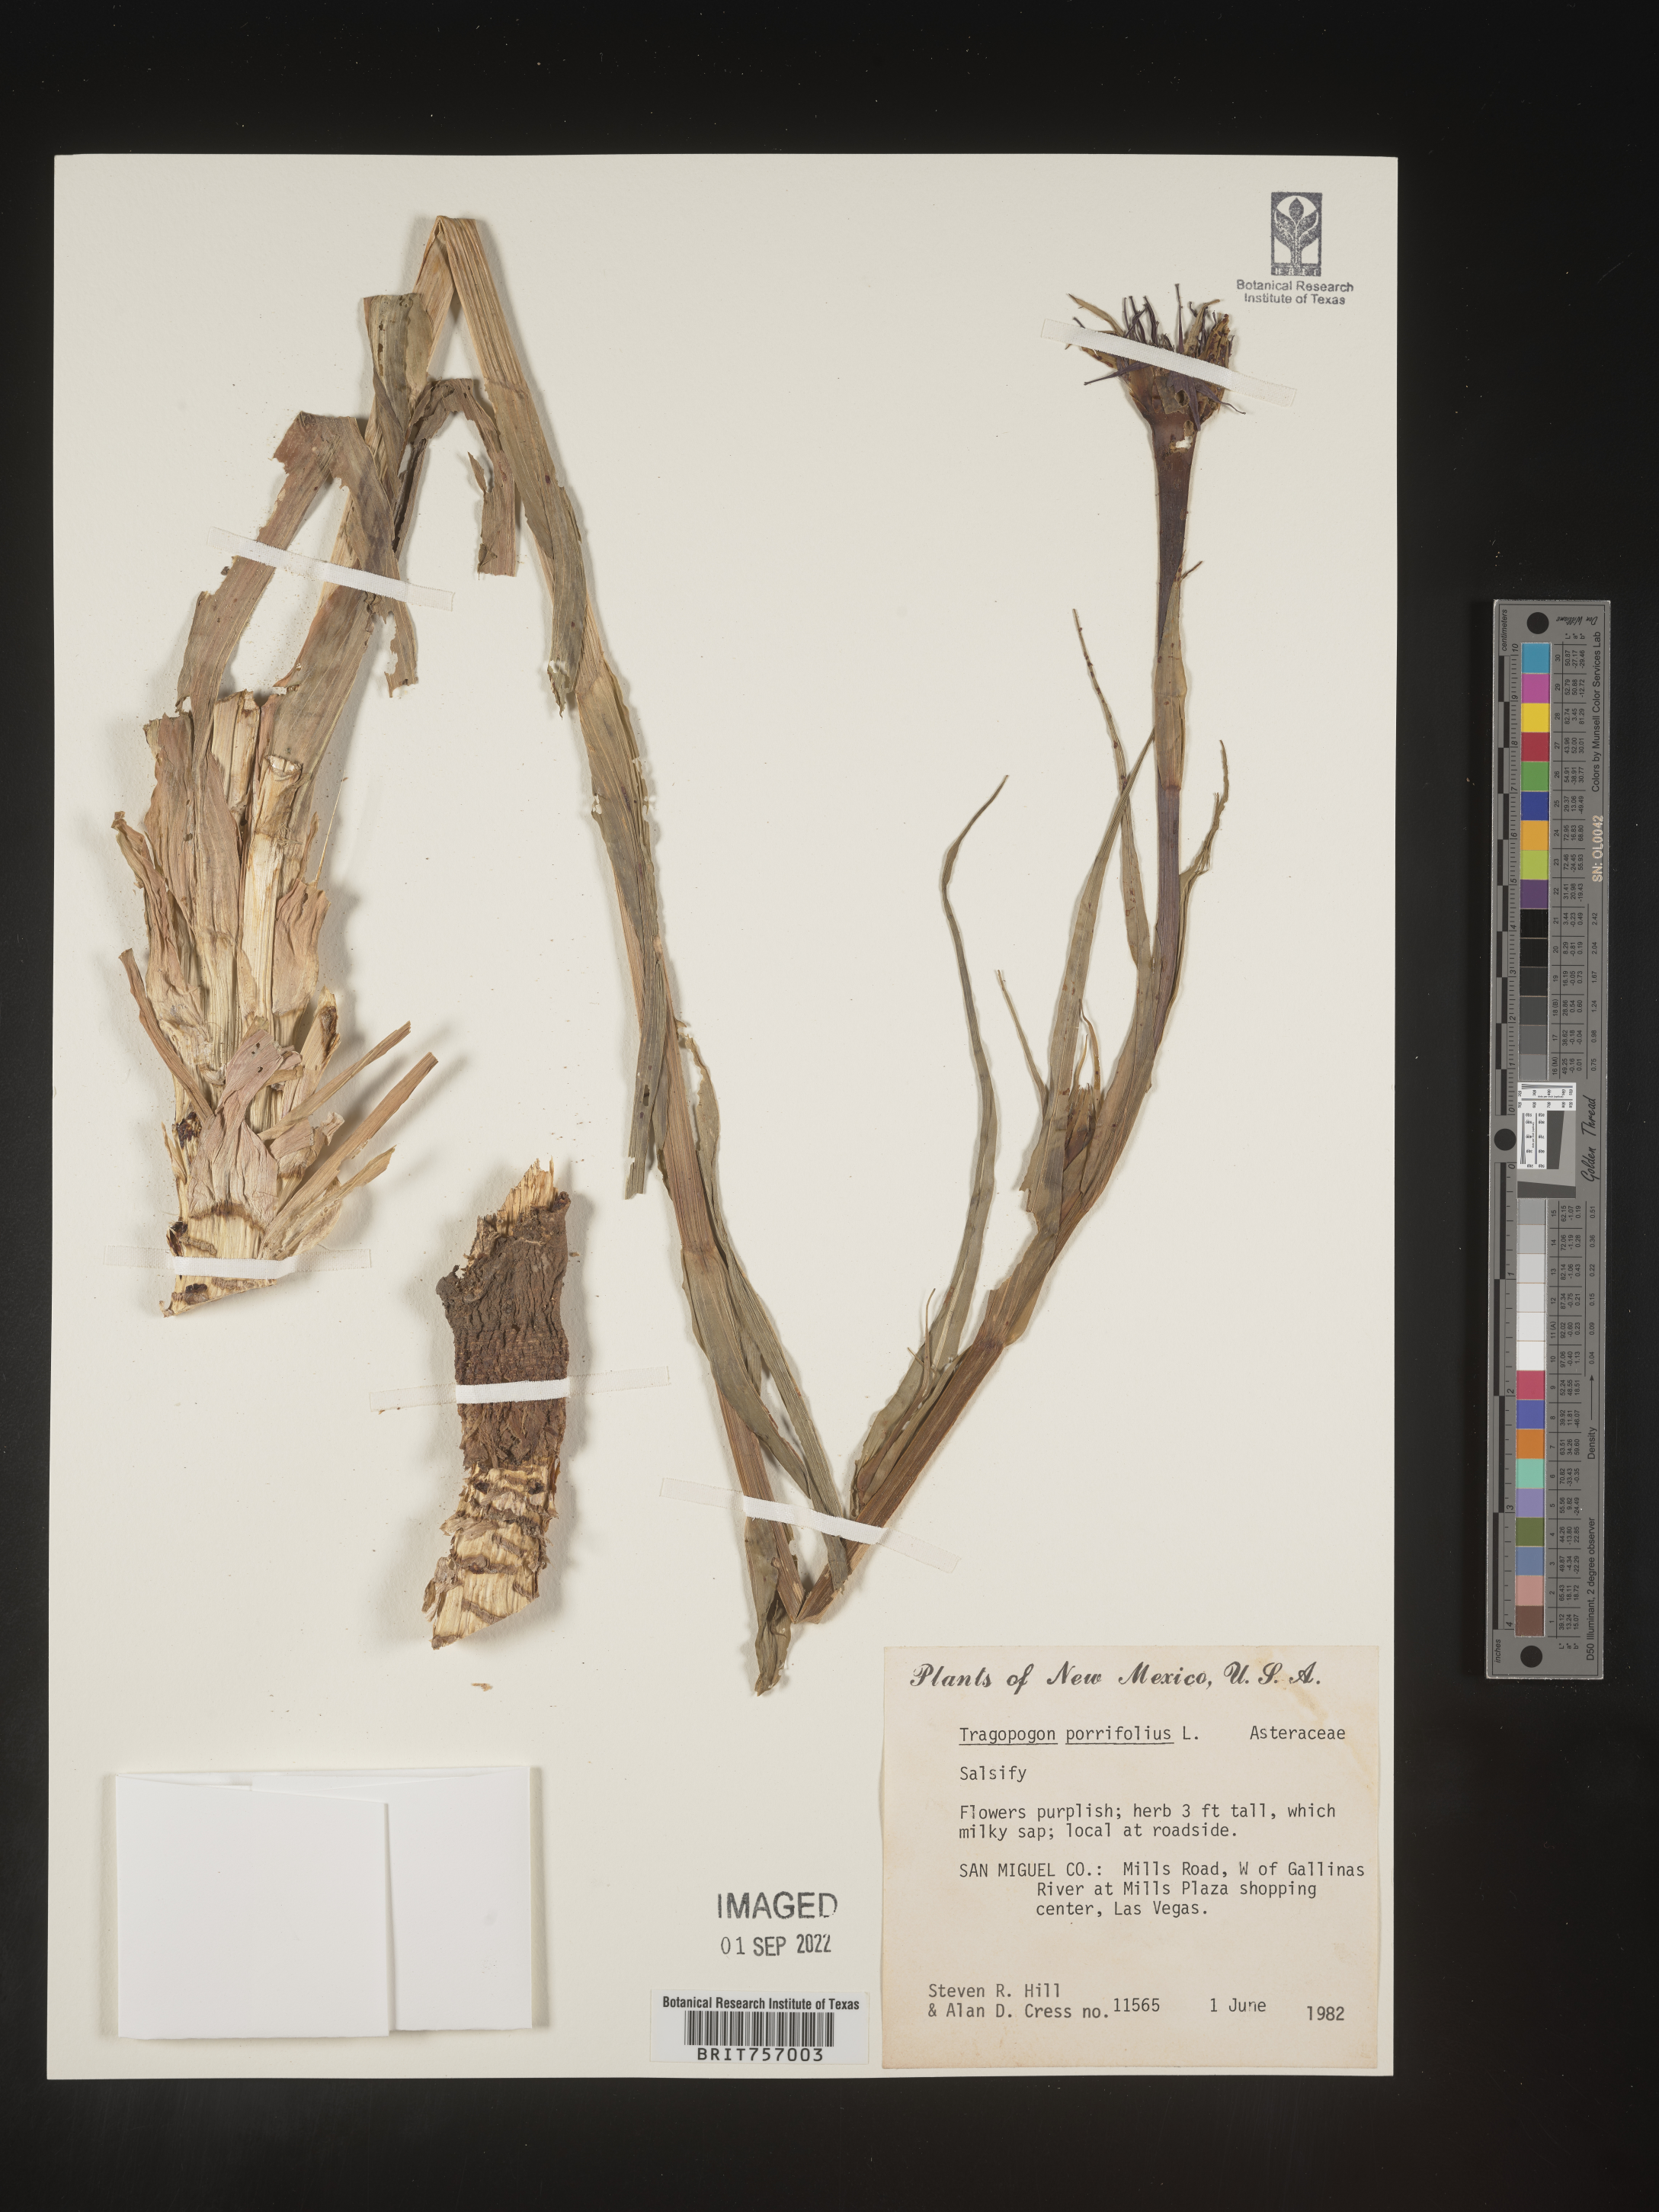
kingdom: Plantae
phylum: Tracheophyta
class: Magnoliopsida
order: Asterales
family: Asteraceae
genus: Tragopogon
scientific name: Tragopogon porrifolius
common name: Salsify
